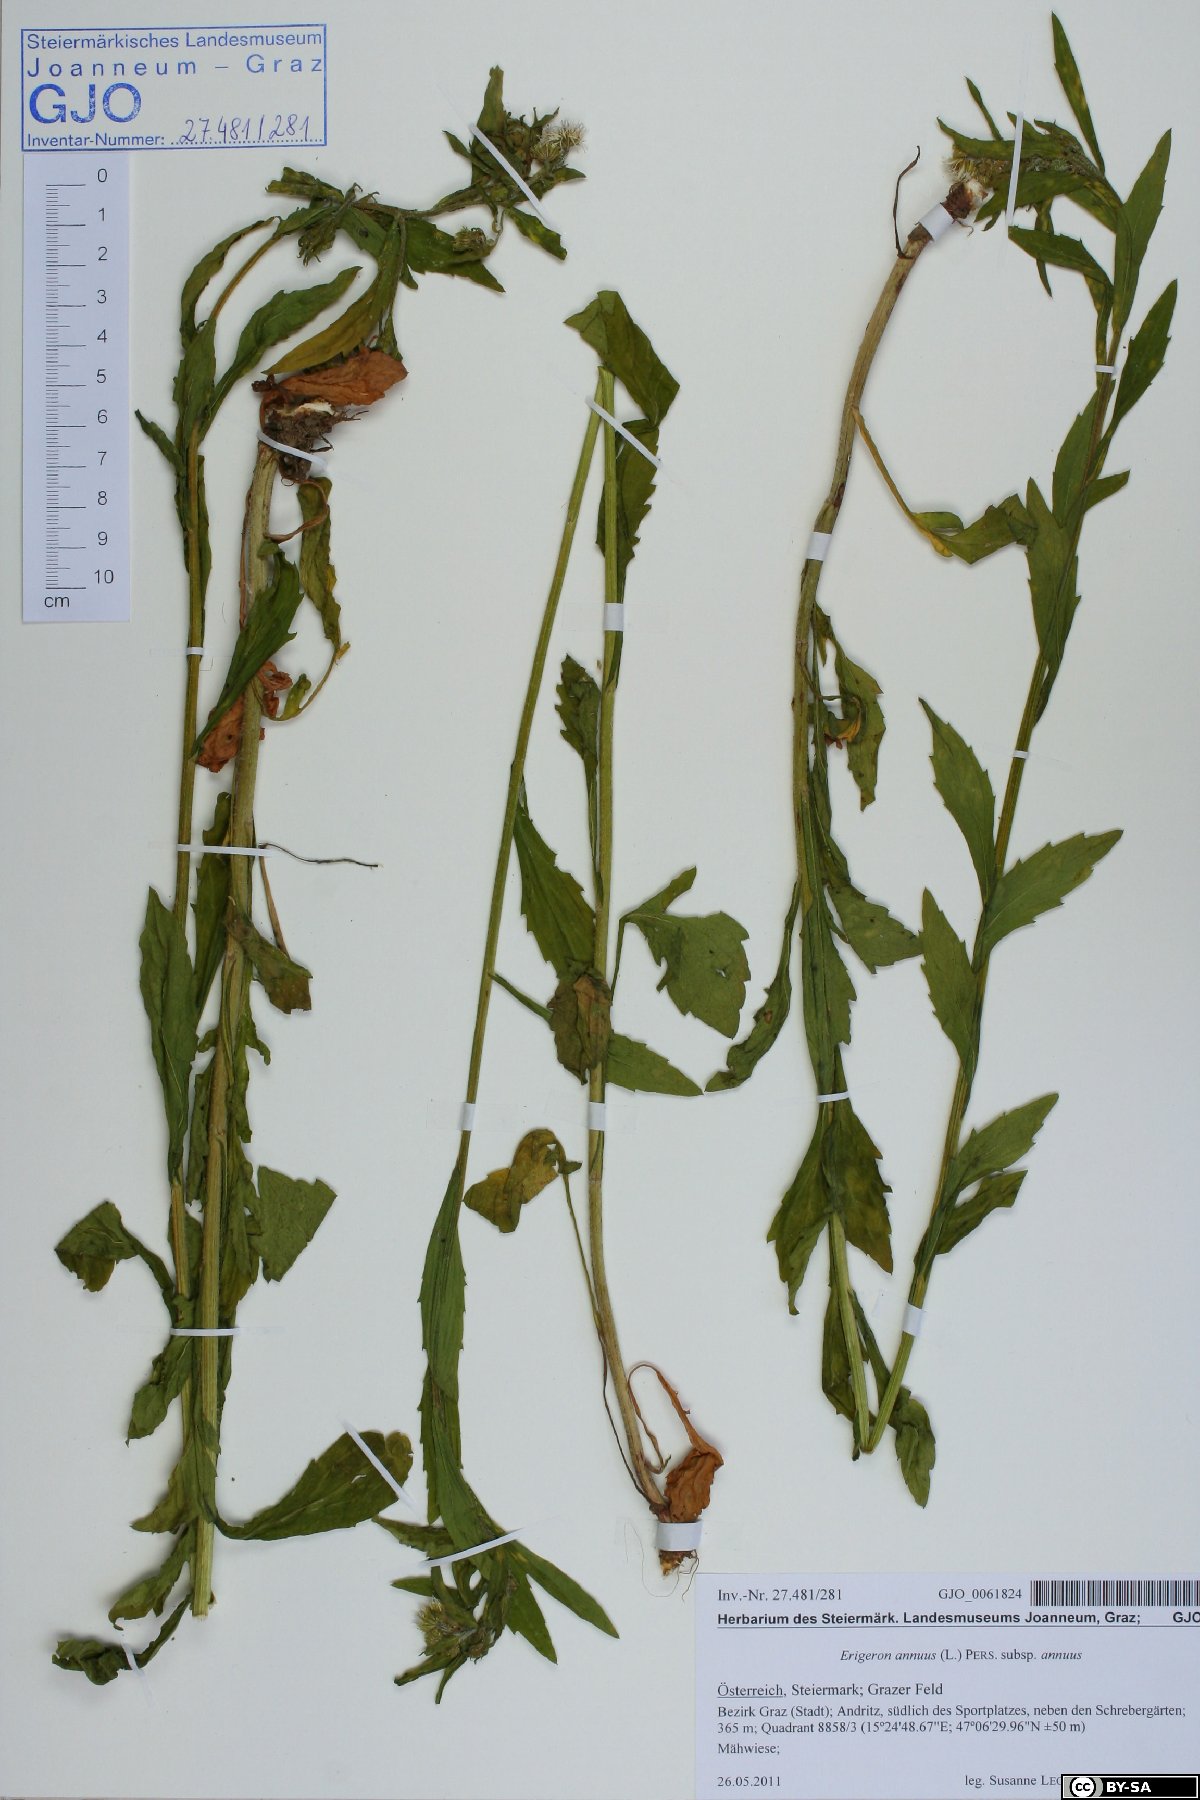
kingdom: Plantae
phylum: Tracheophyta
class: Magnoliopsida
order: Asterales
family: Asteraceae
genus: Erigeron
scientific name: Erigeron annuus
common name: Tall fleabane
